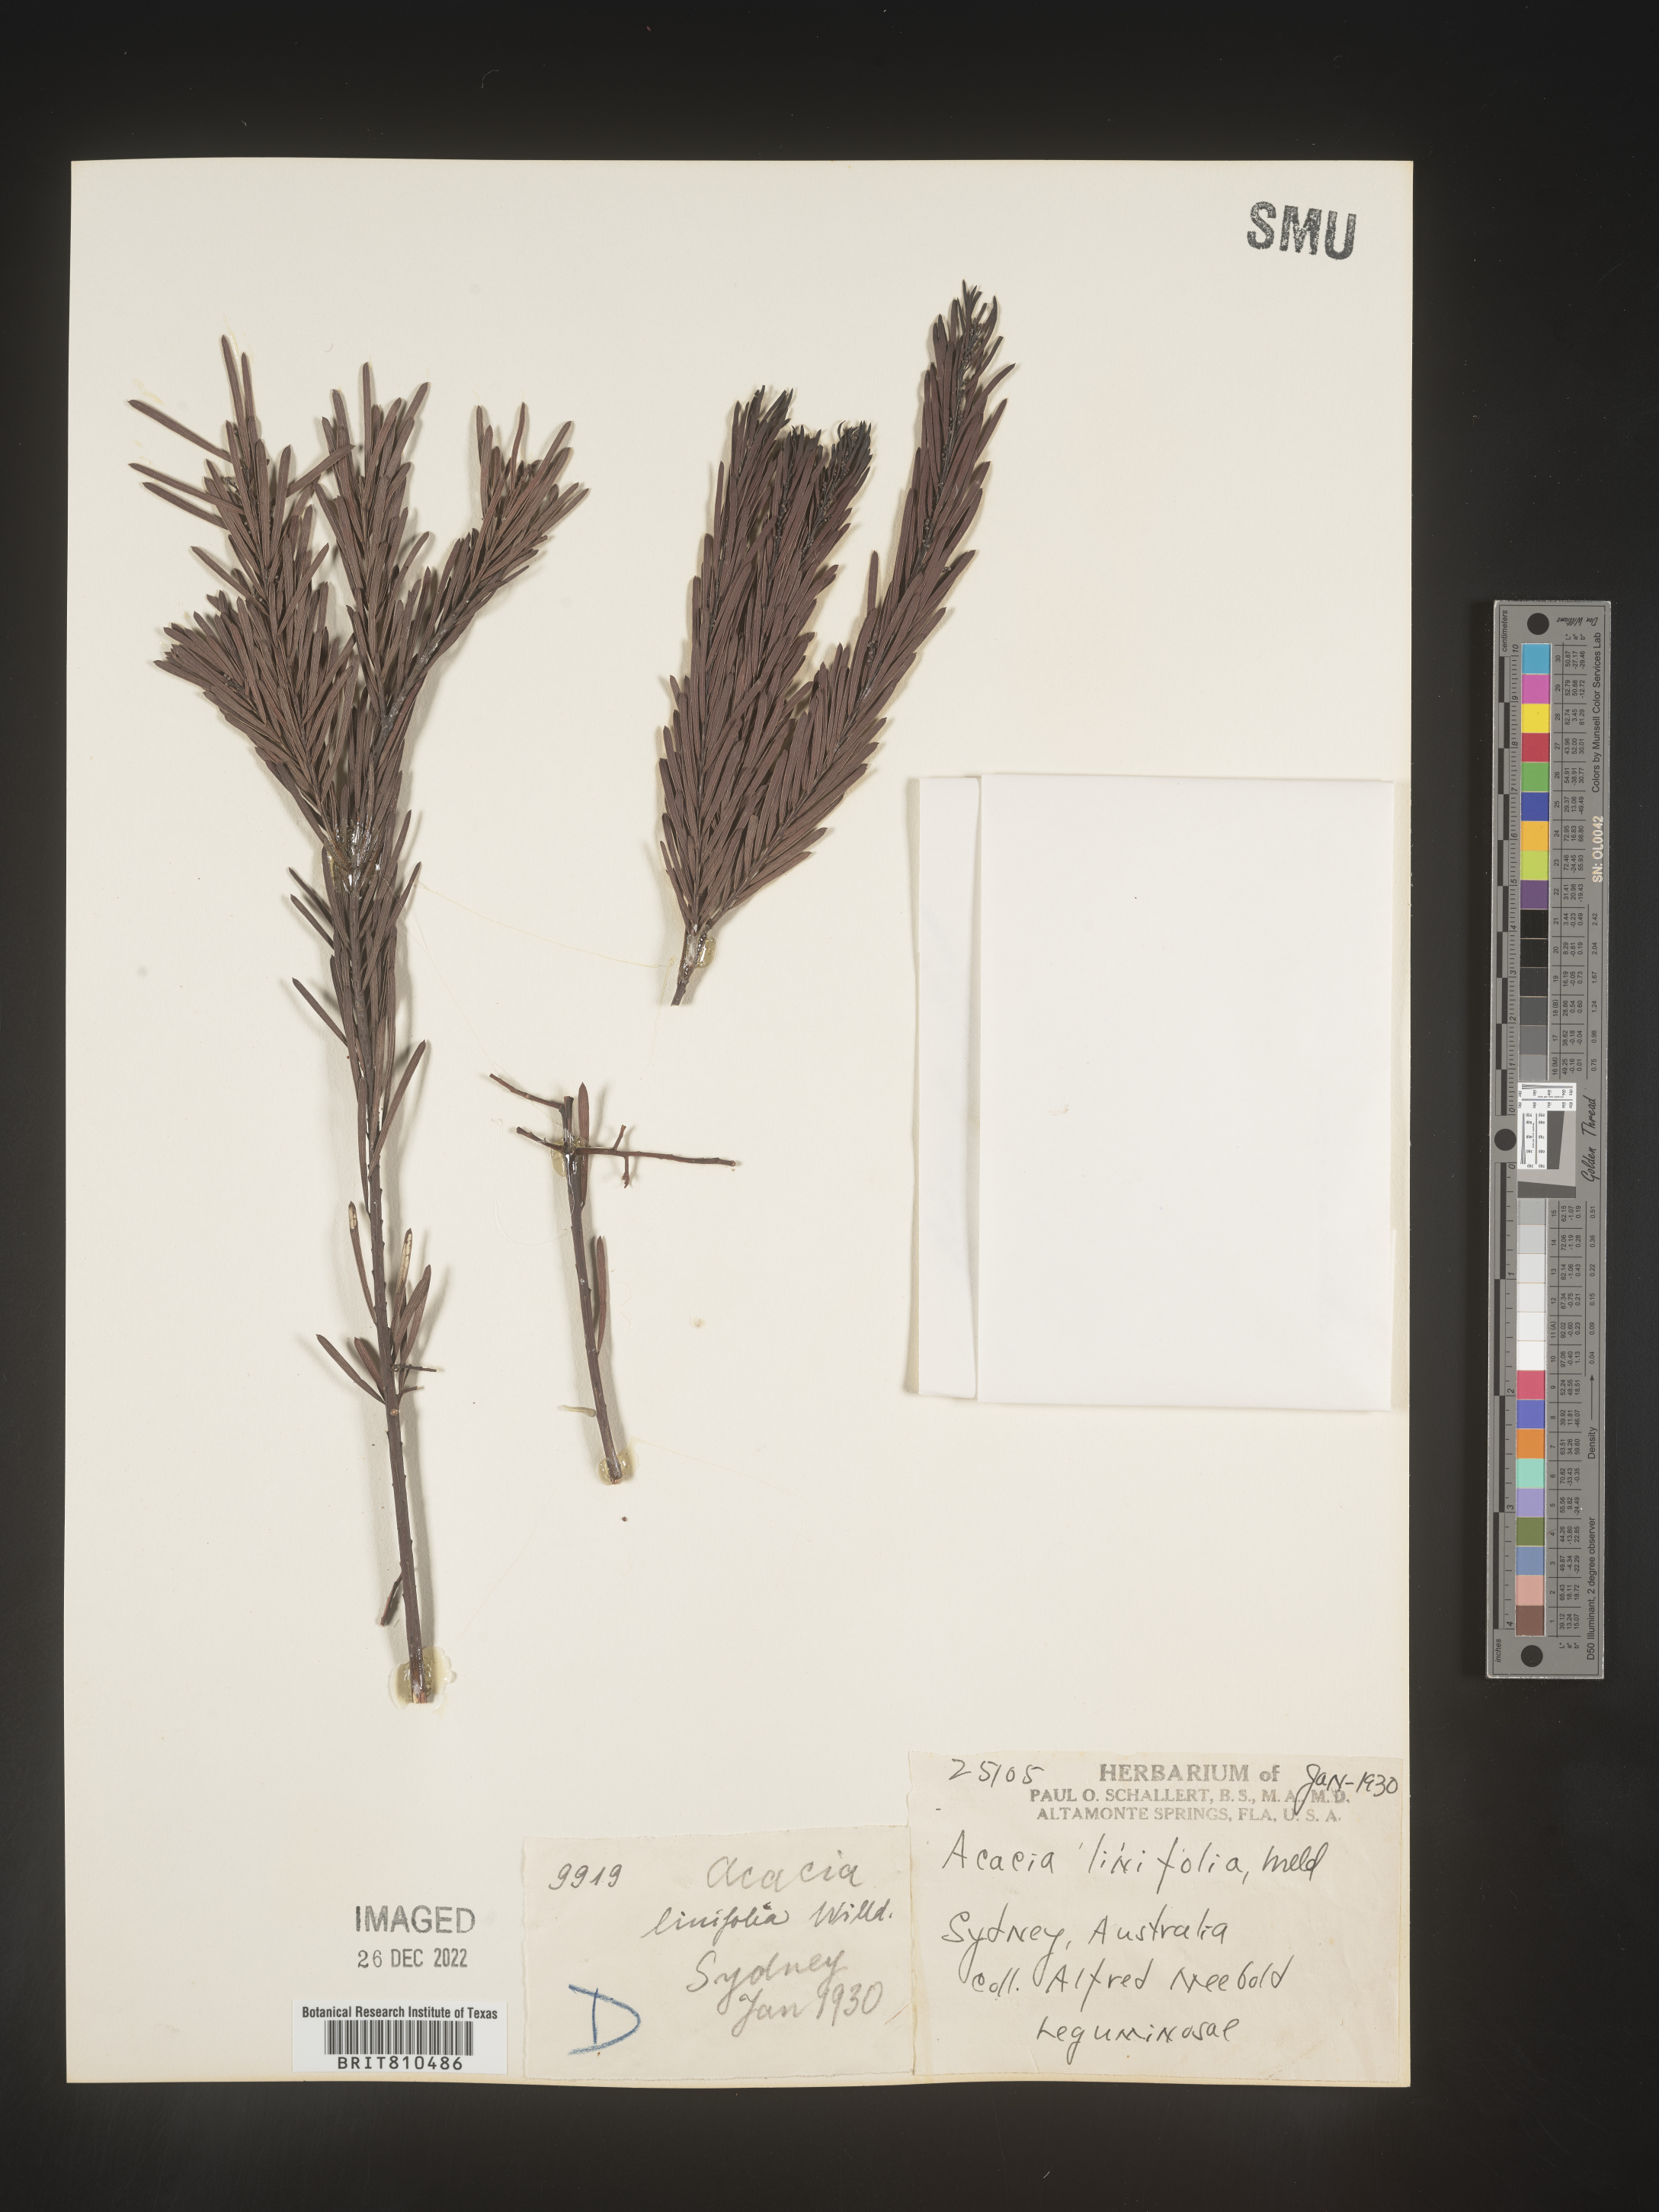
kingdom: Plantae
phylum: Tracheophyta
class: Magnoliopsida
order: Fabales
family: Fabaceae
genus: Acacia
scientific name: Acacia
